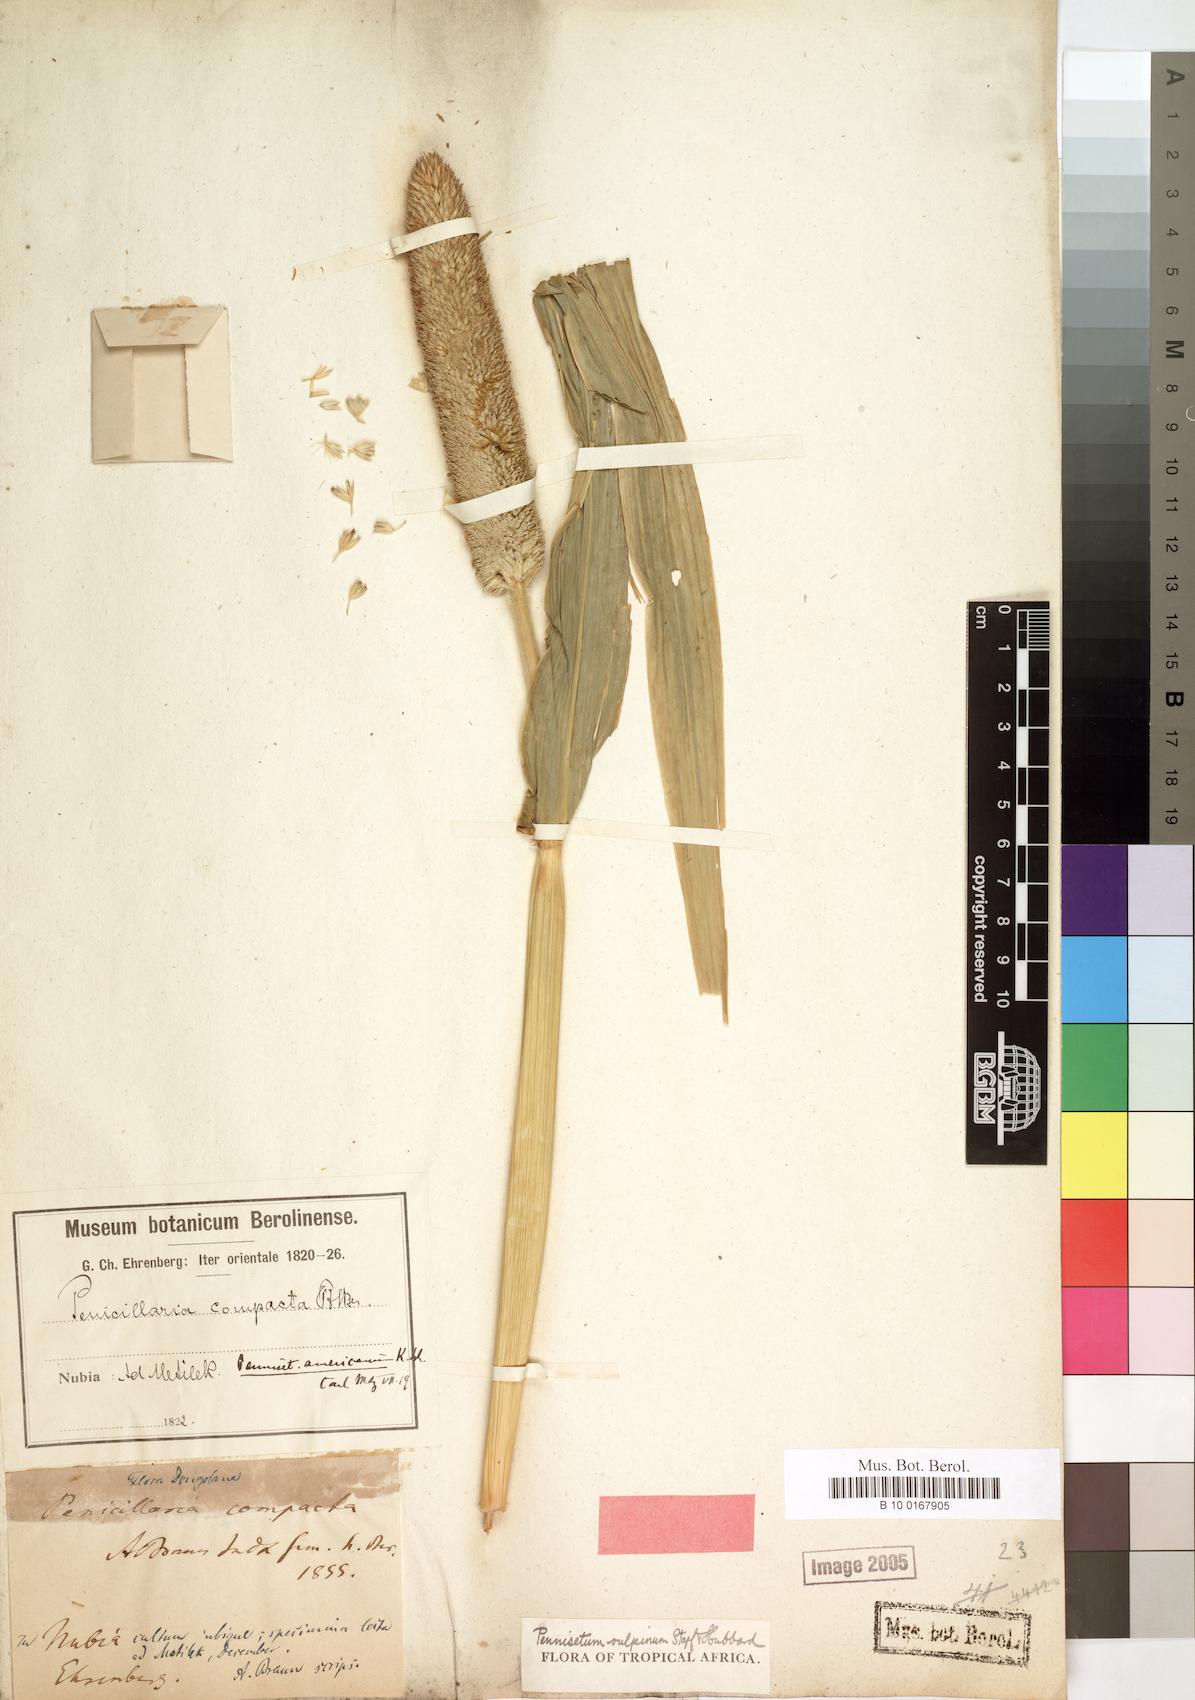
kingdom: Plantae
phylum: Tracheophyta
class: Liliopsida
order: Poales
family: Poaceae
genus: Cenchrus
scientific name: Cenchrus sieberianus
